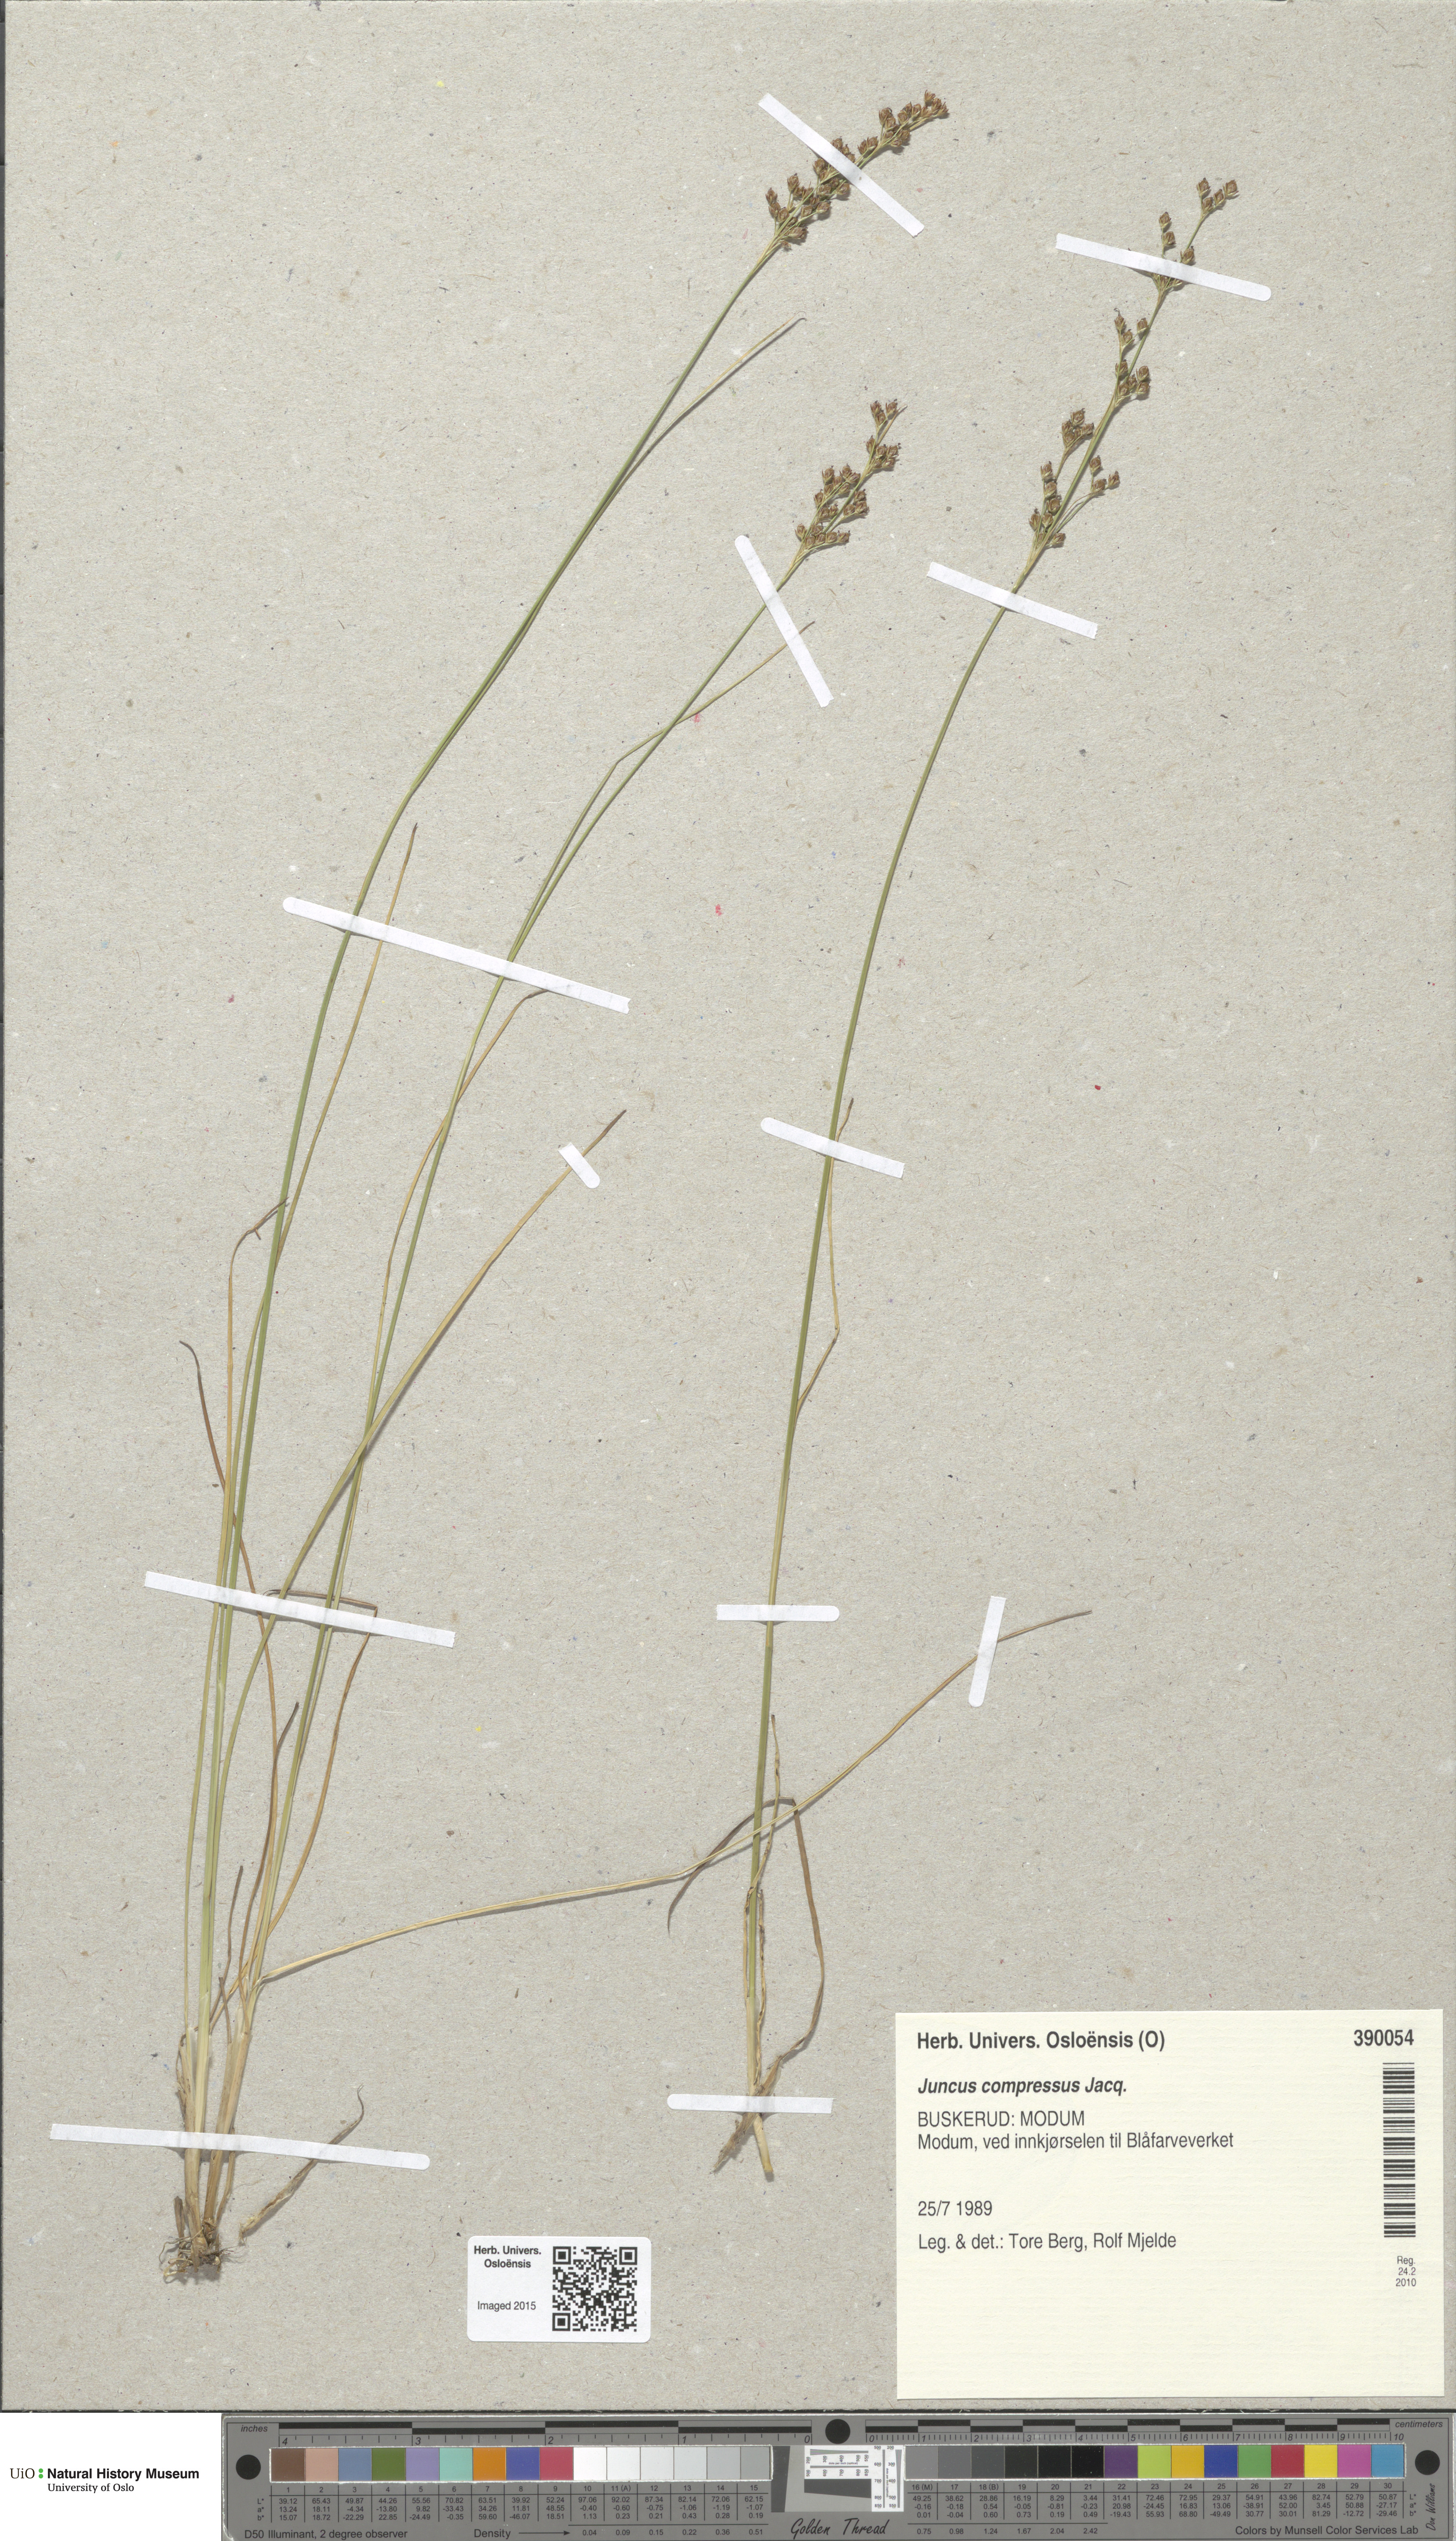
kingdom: Plantae
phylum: Tracheophyta
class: Liliopsida
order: Poales
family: Juncaceae
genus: Juncus
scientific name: Juncus compressus
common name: Round-fruited rush
